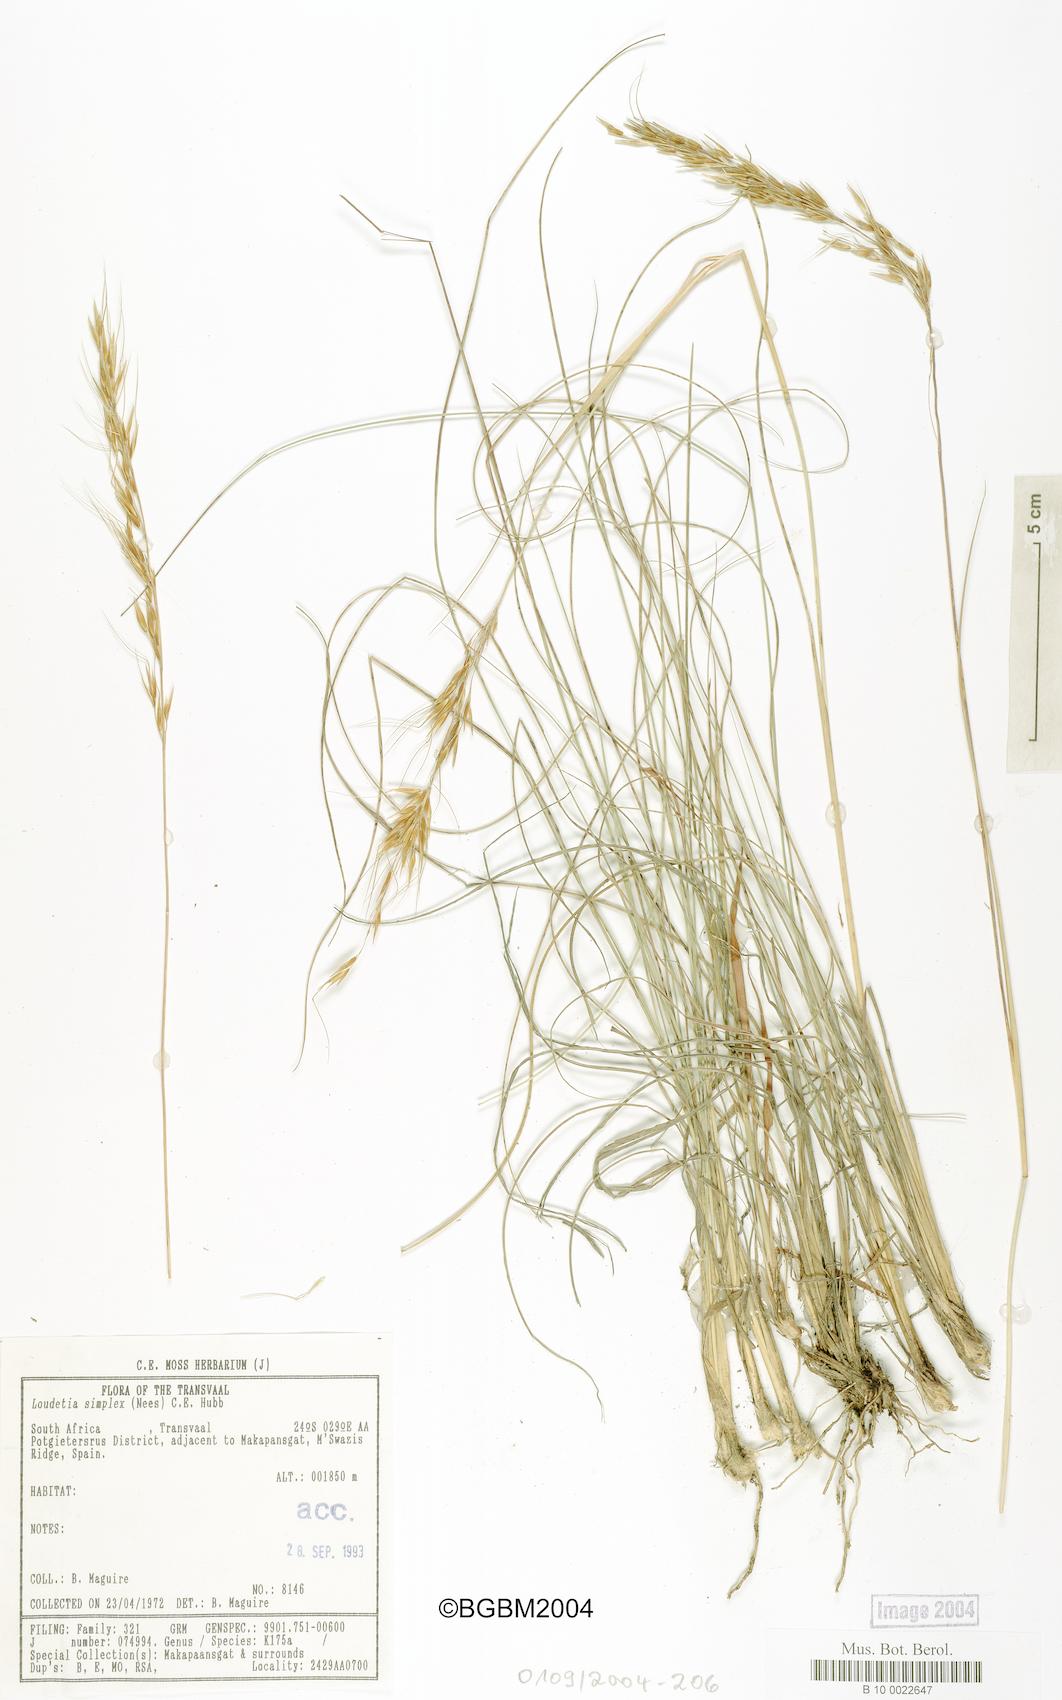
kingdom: Plantae
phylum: Tracheophyta
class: Liliopsida
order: Poales
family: Poaceae
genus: Loudetia
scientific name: Loudetia simplex
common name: Common russet grass
